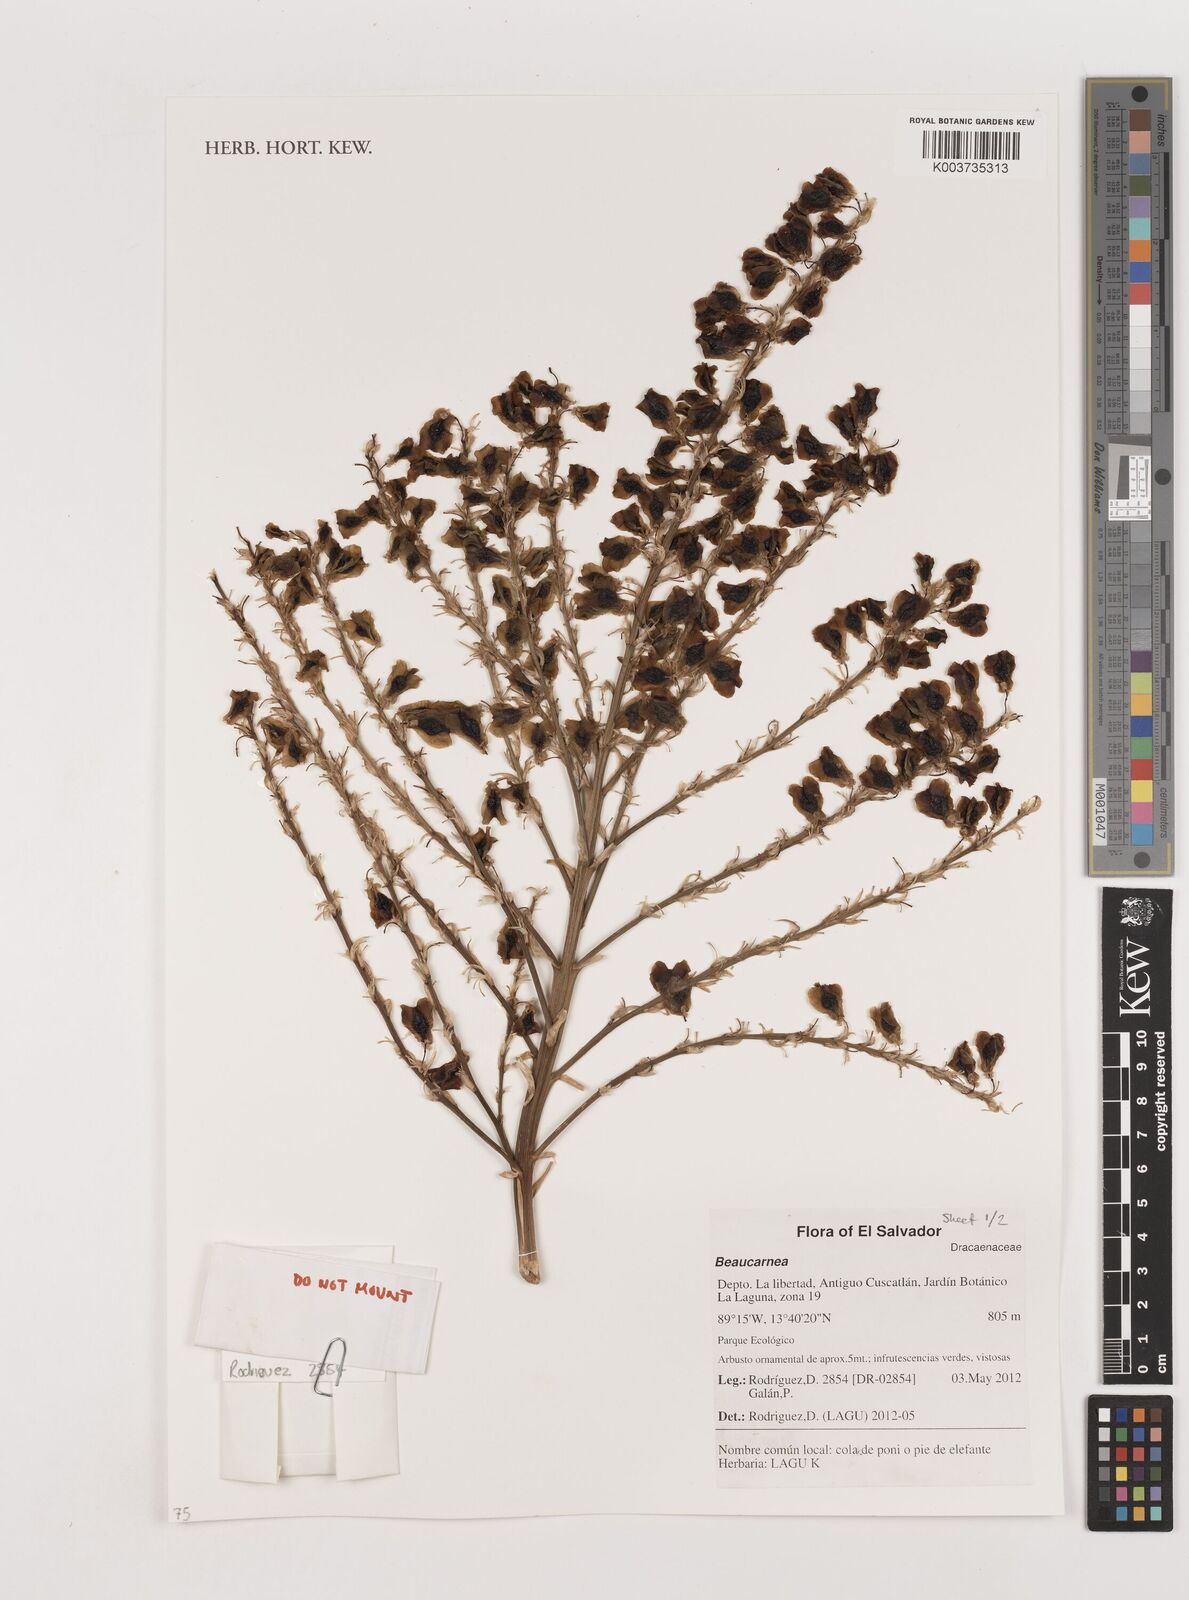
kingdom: Plantae
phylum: Tracheophyta
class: Liliopsida
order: Asparagales
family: Asparagaceae
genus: Beaucarnea
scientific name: Beaucarnea
